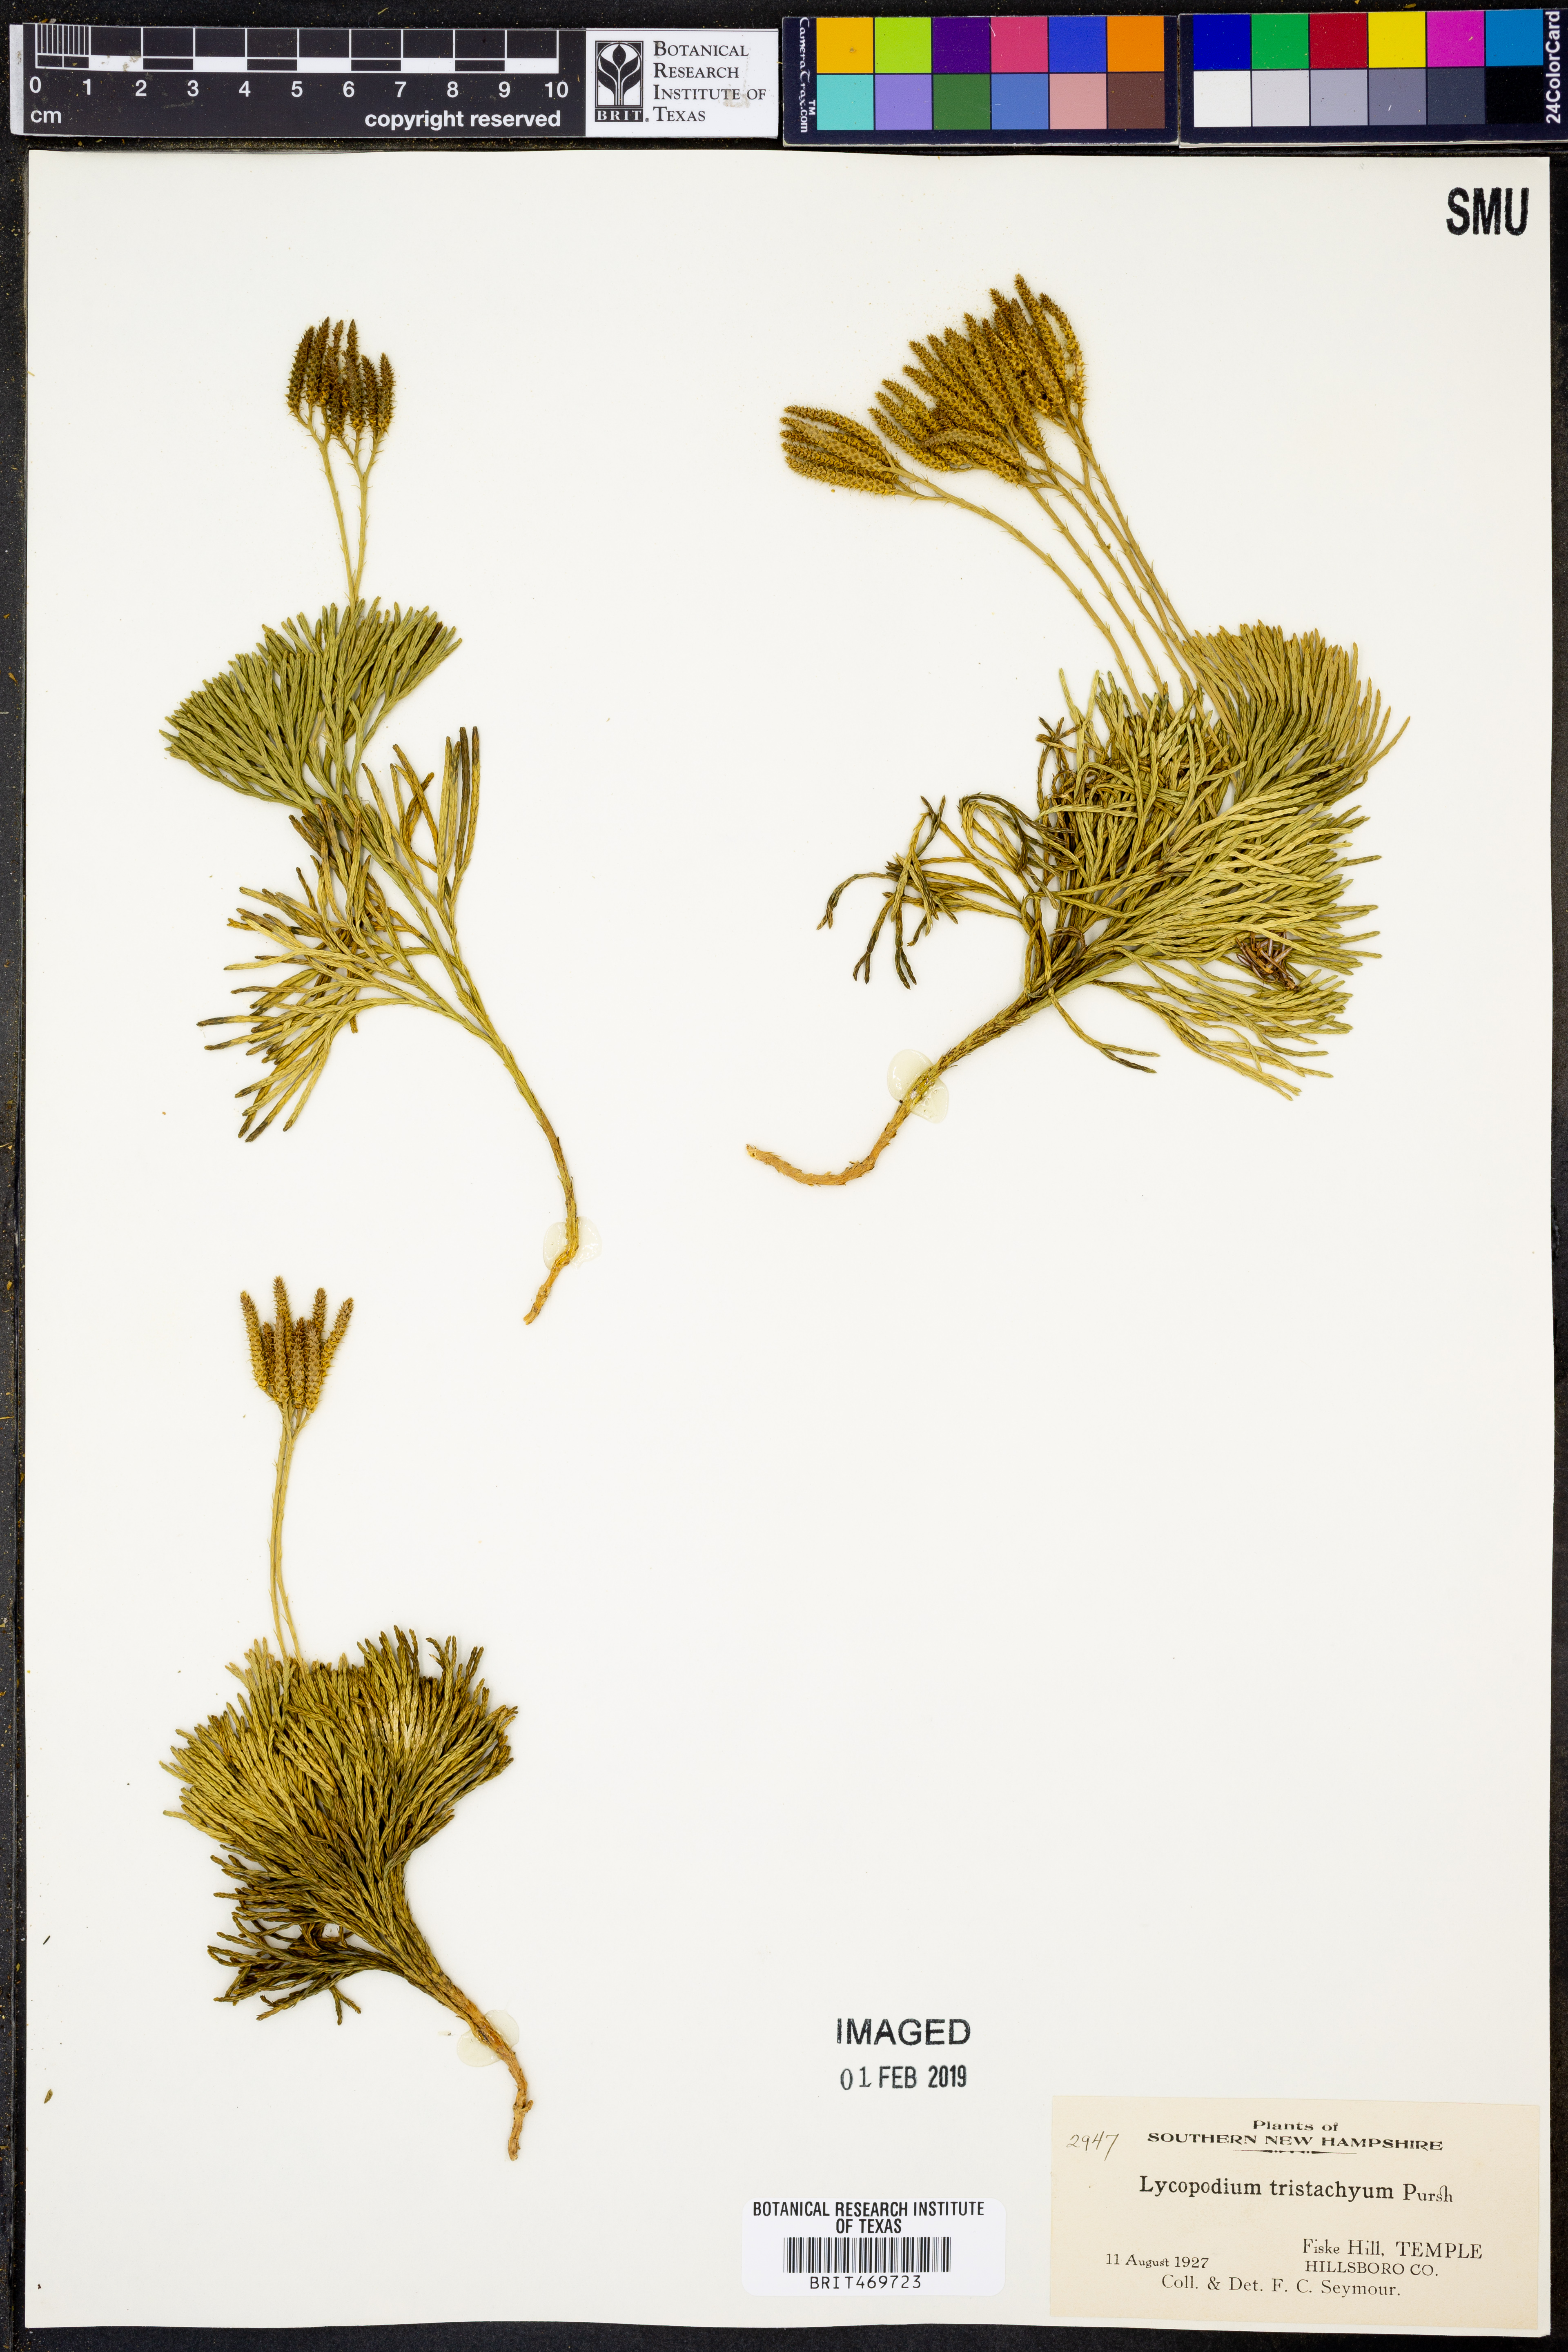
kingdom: Plantae
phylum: Tracheophyta
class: Lycopodiopsida
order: Lycopodiales
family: Lycopodiaceae
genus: Diphasiastrum
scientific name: Diphasiastrum tristachyum
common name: Blue ground-cedar
